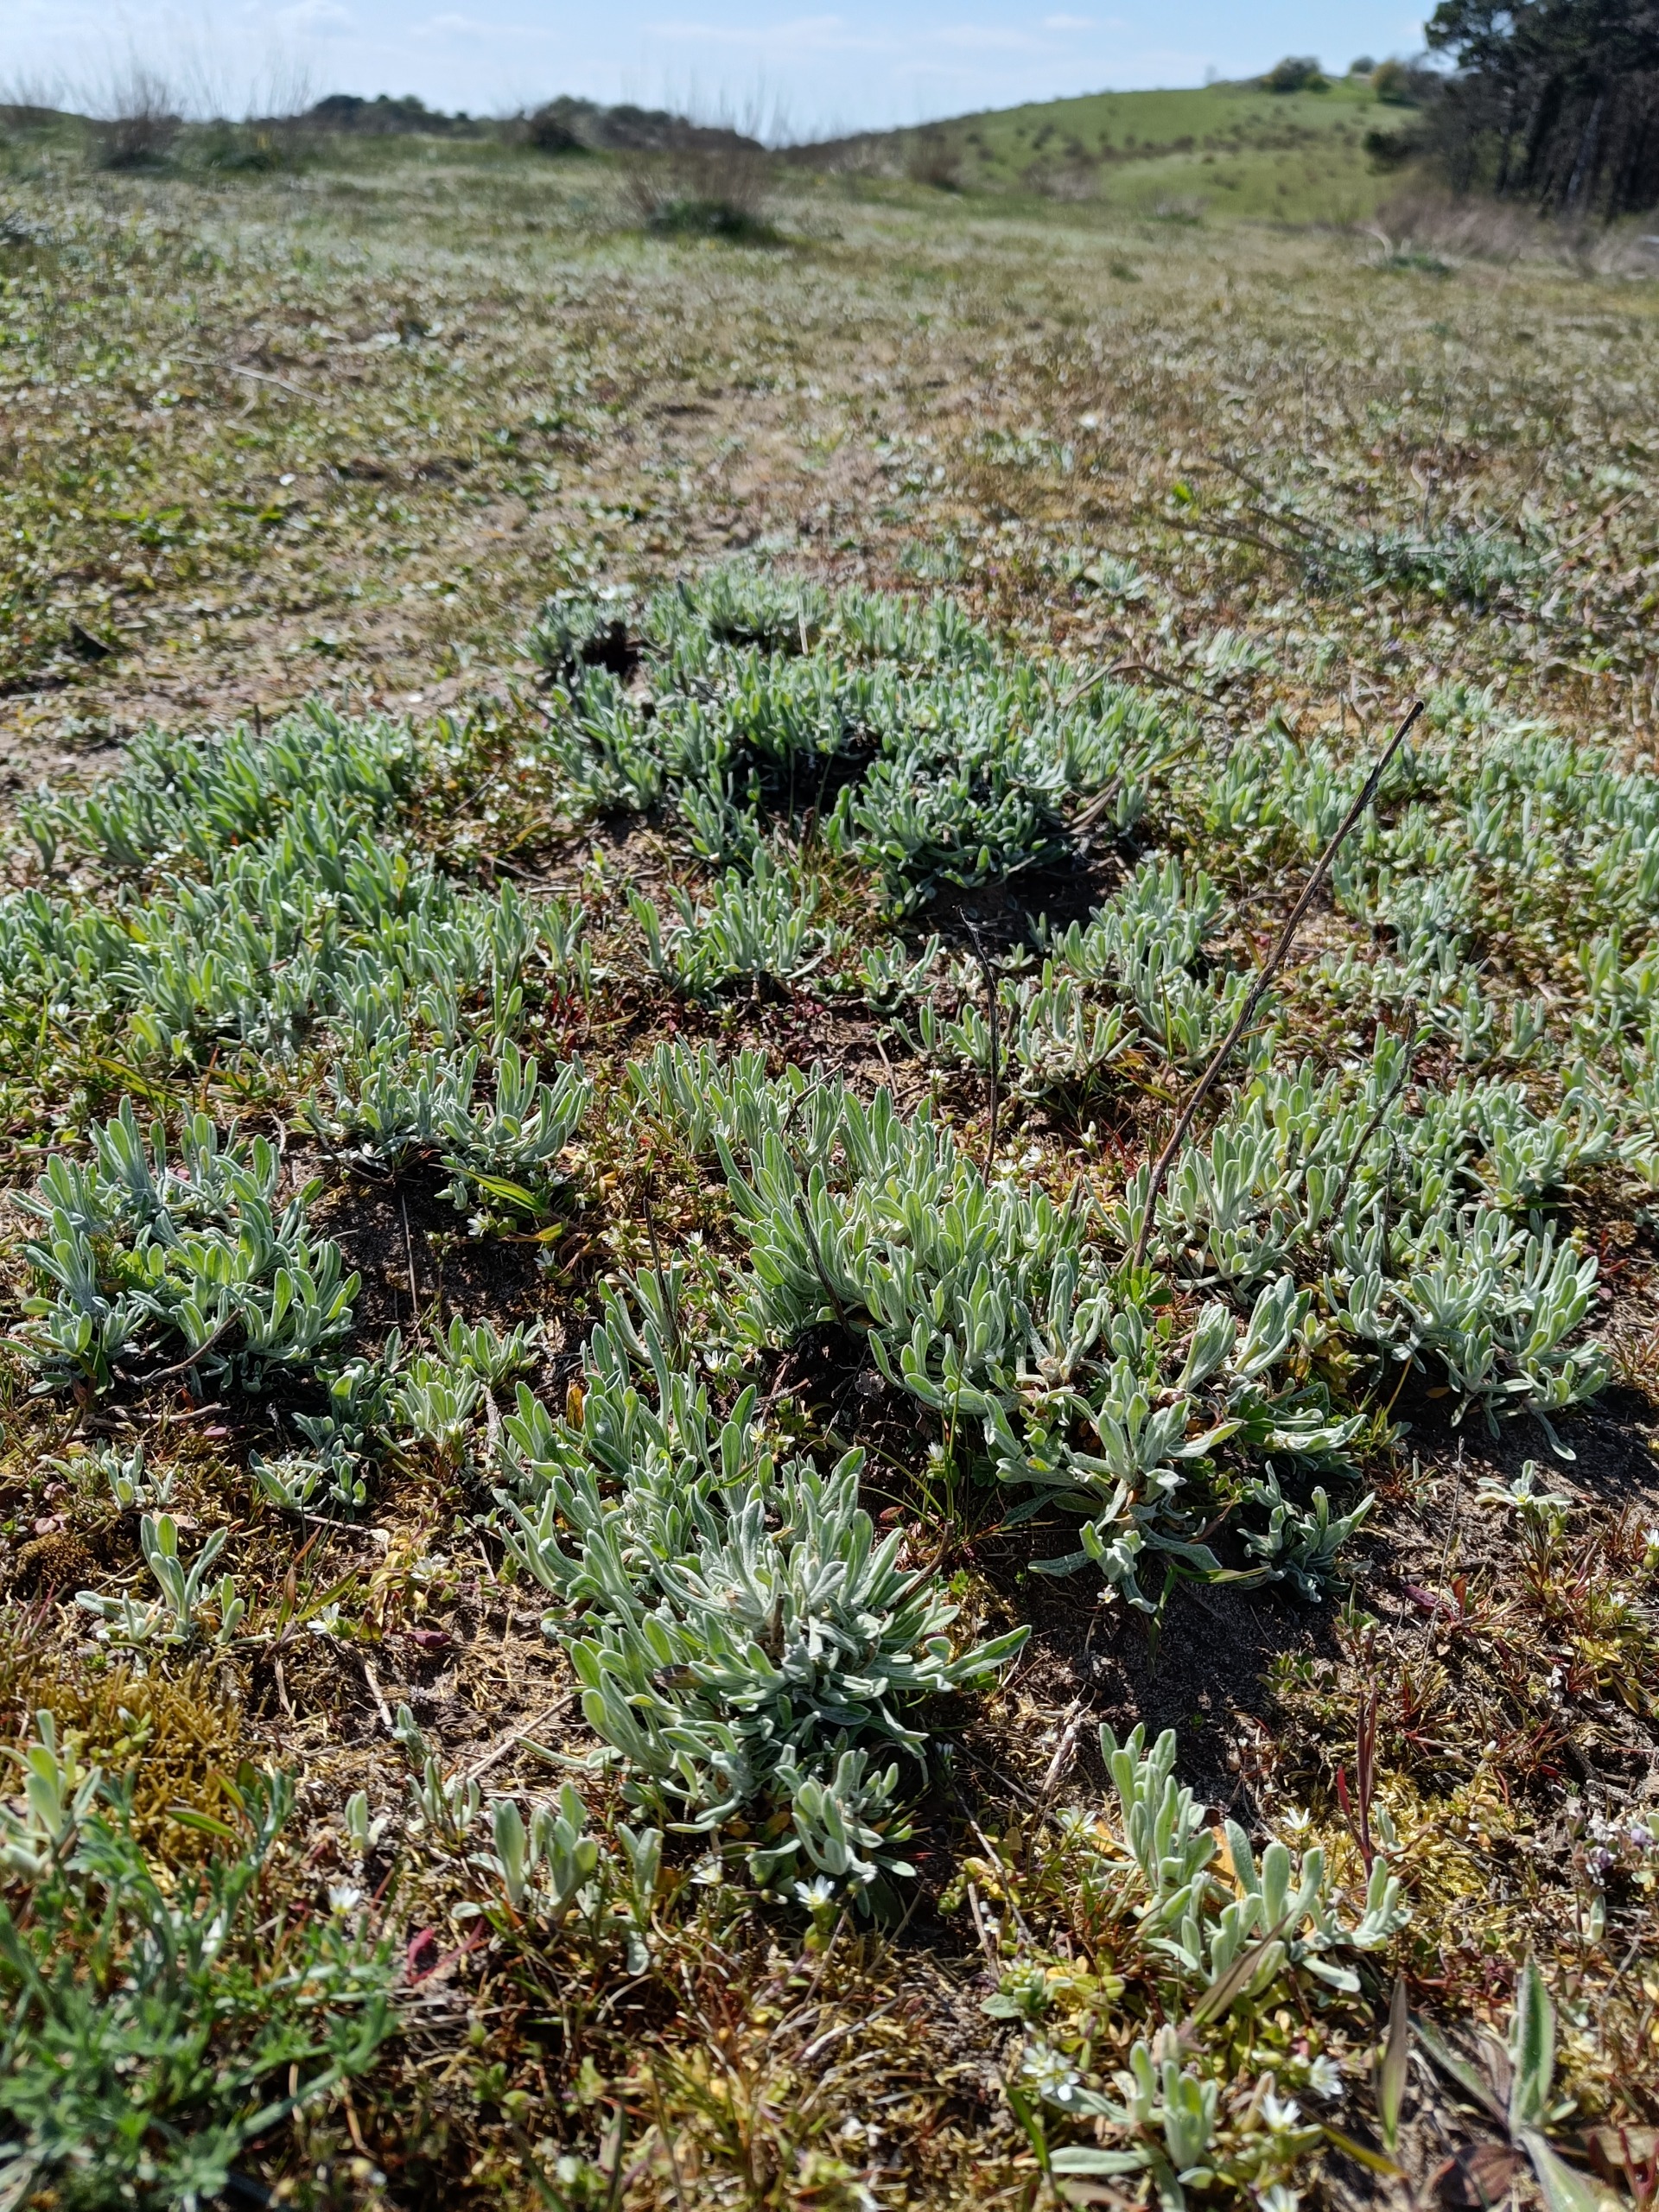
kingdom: Plantae
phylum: Tracheophyta
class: Magnoliopsida
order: Asterales
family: Asteraceae
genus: Helichrysum
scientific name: Helichrysum arenarium
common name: Gul evighedsblomst
